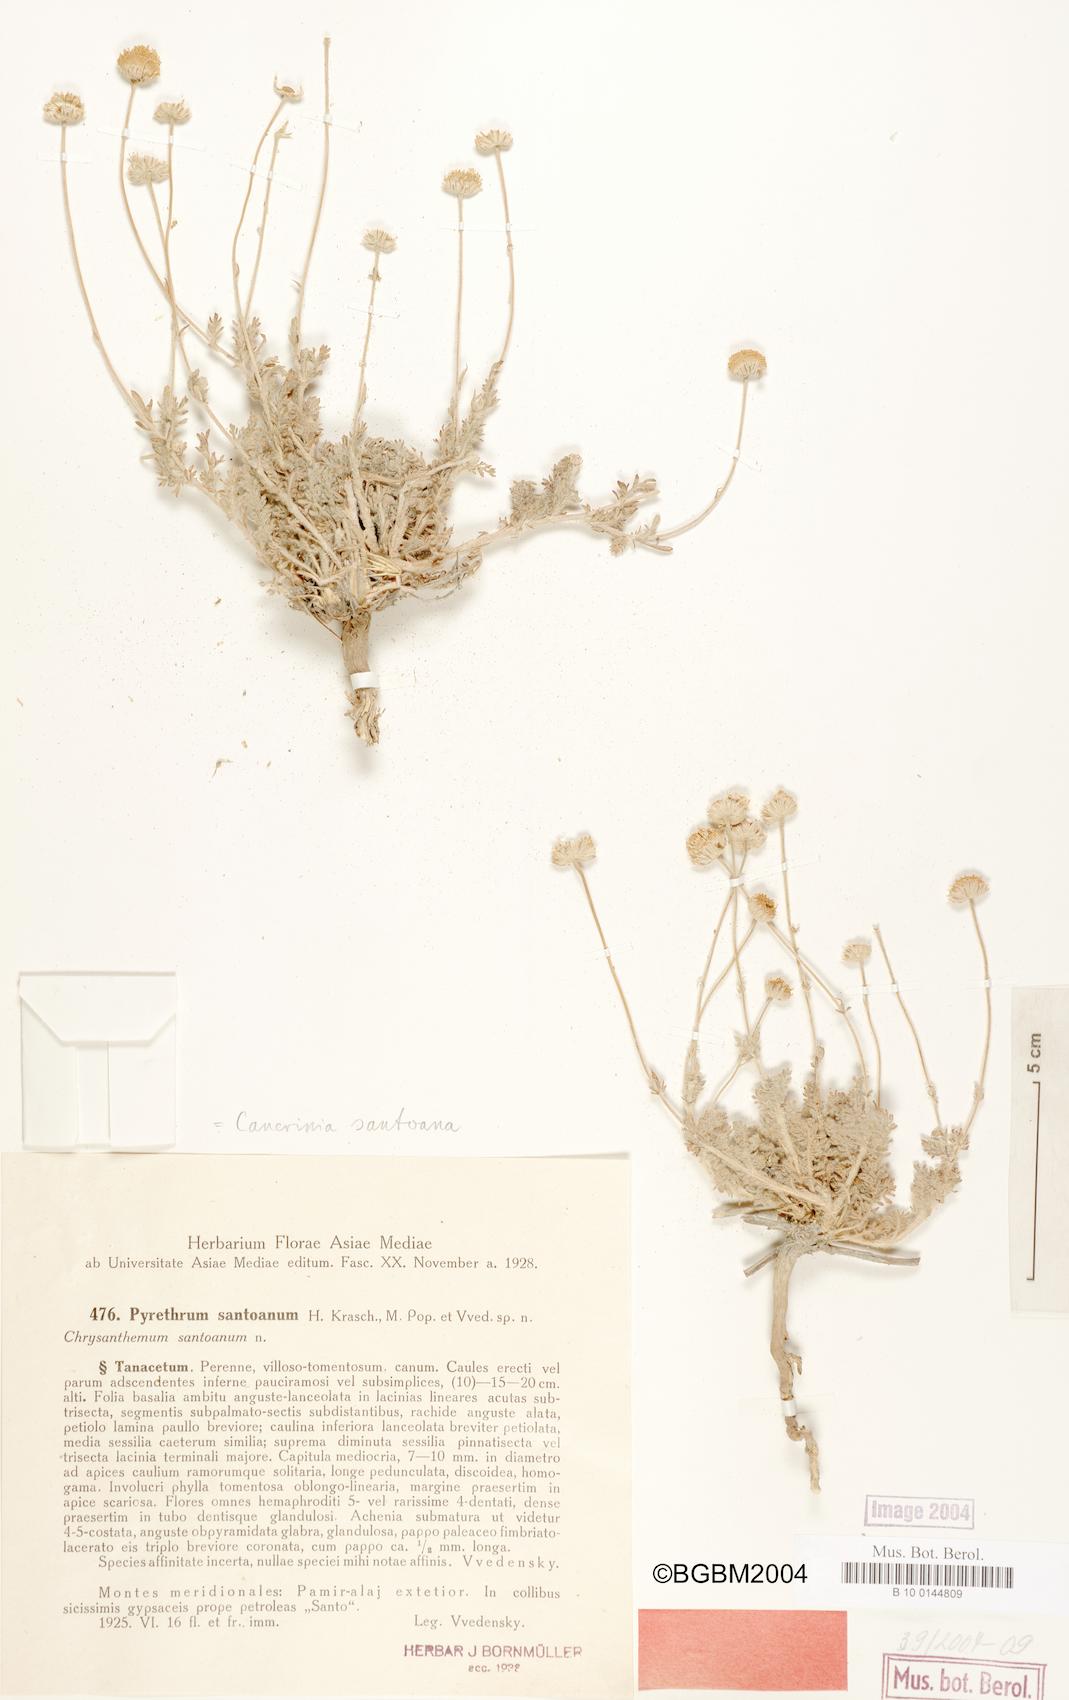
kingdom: Plantae
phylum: Tracheophyta
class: Magnoliopsida
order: Asterales
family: Asteraceae
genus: Tanacetopsis
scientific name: Tanacetopsis santoana
